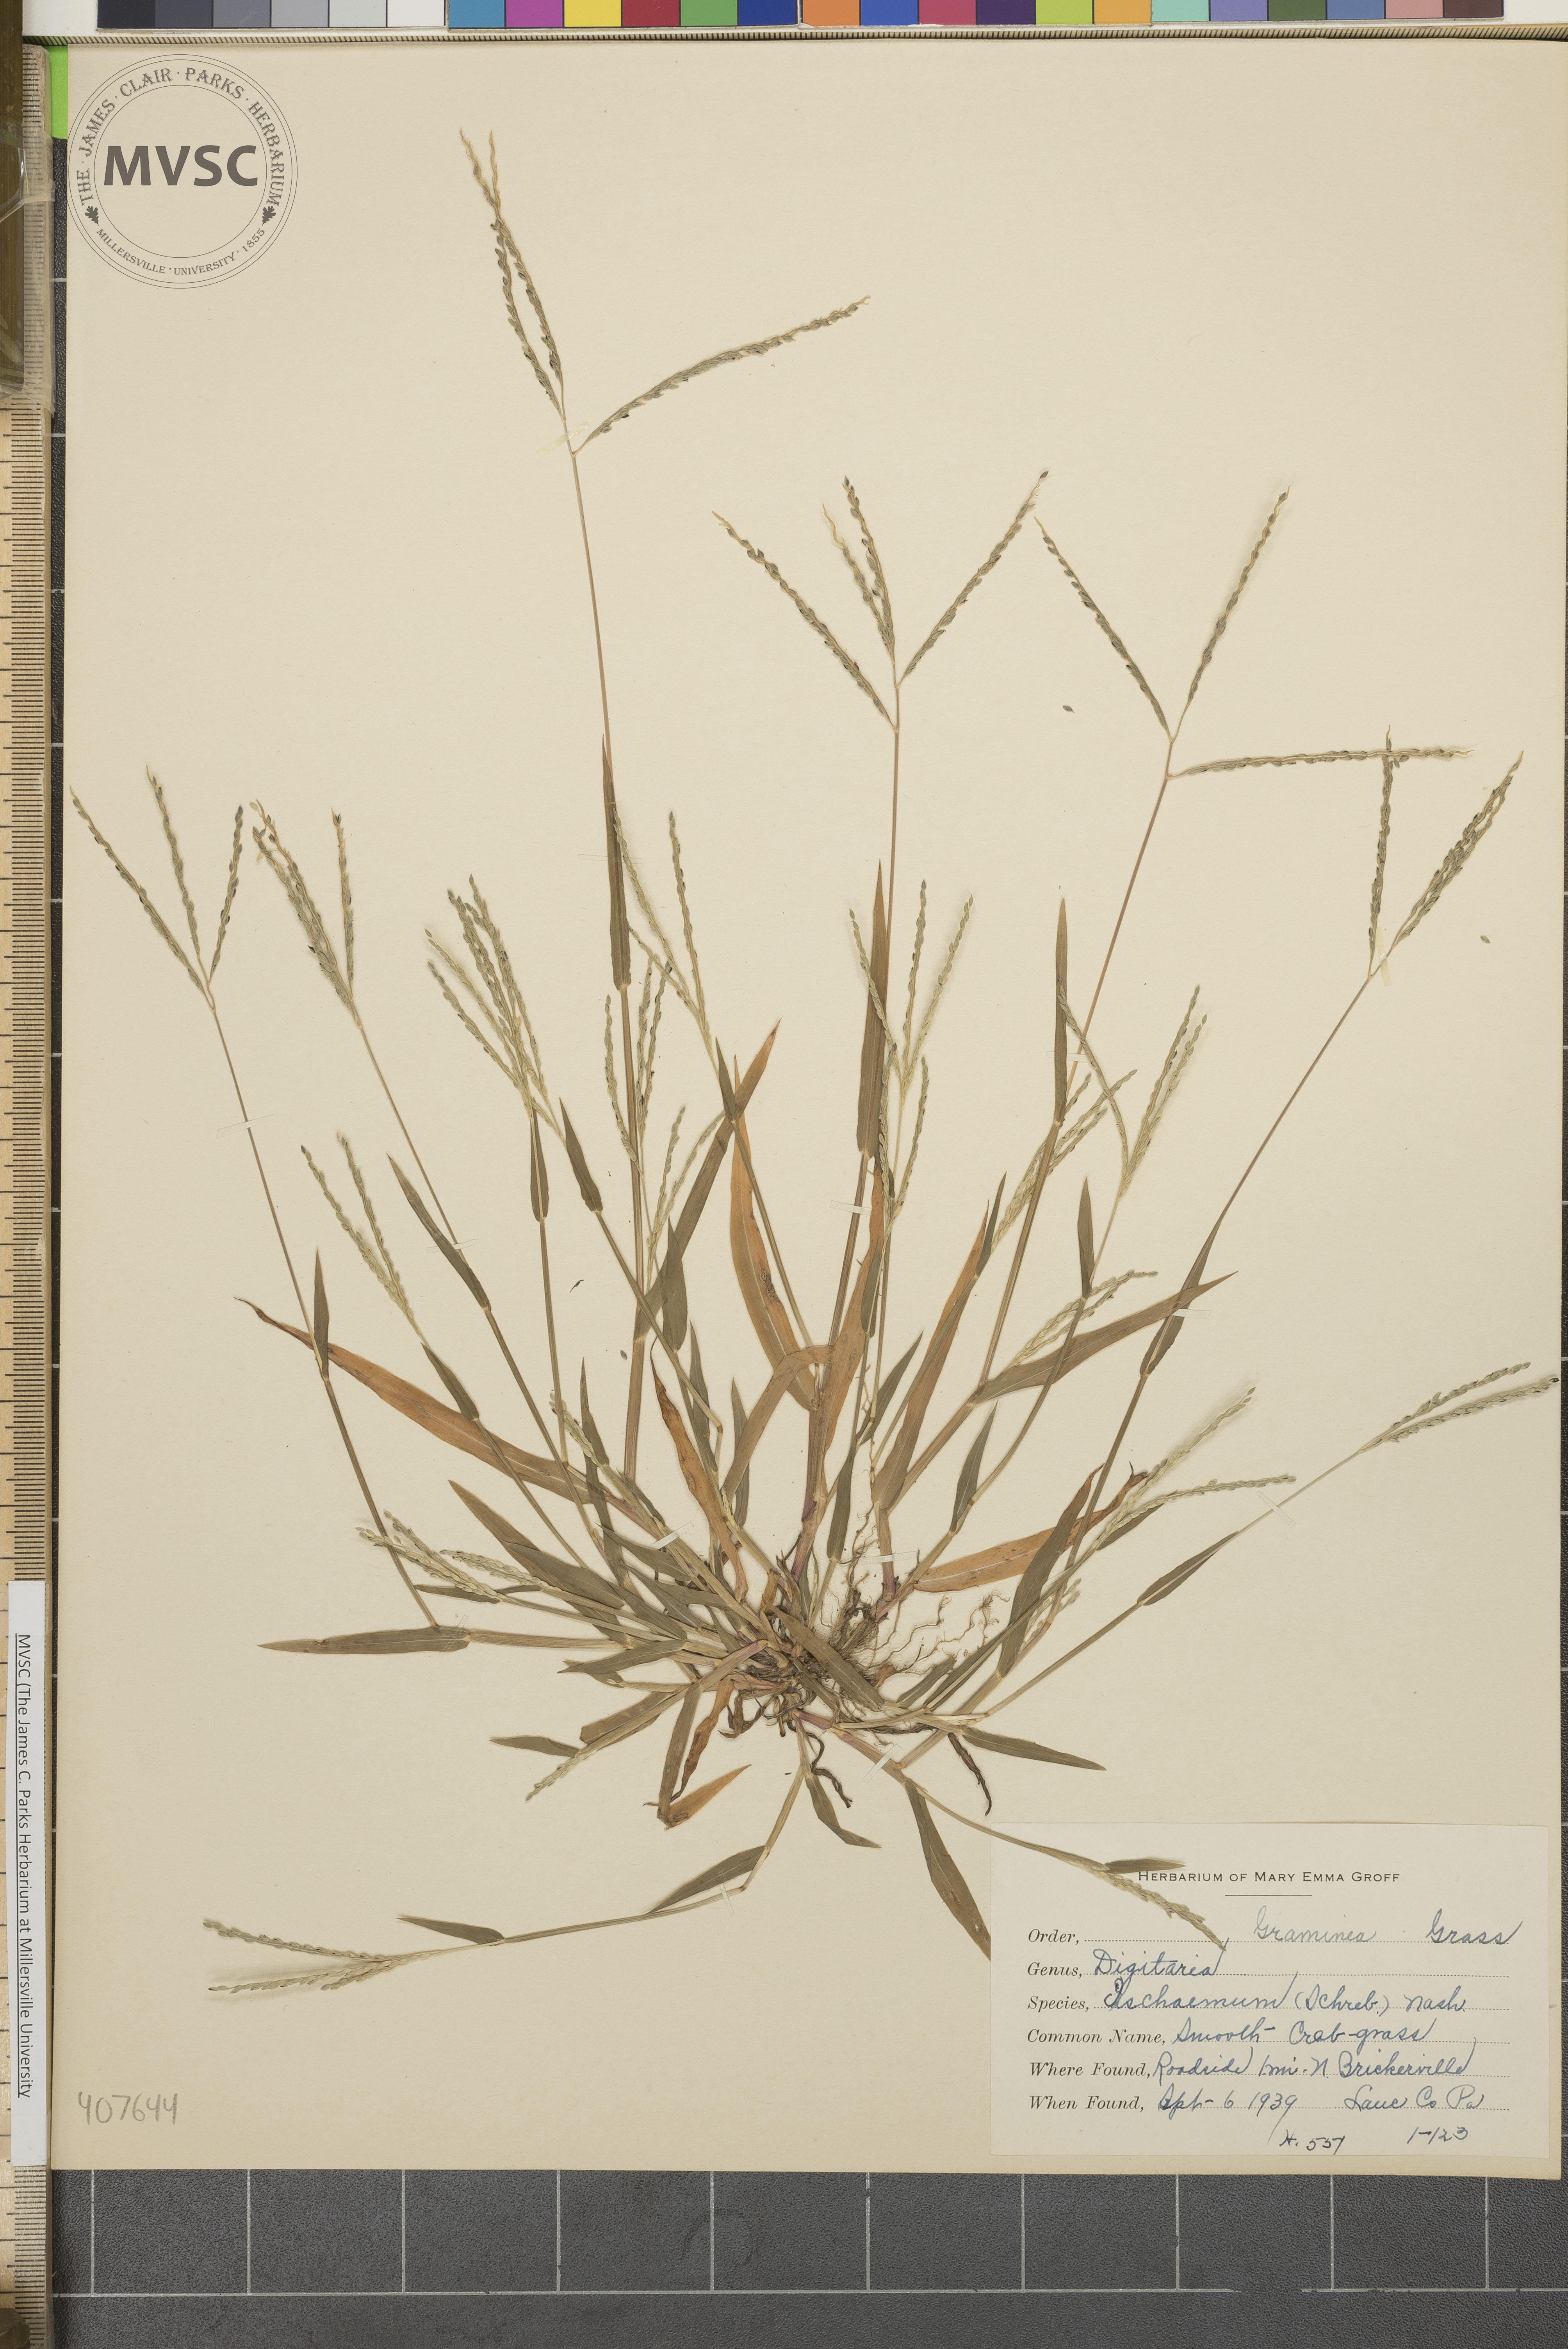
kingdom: Plantae
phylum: Tracheophyta
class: Liliopsida
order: Poales
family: Poaceae
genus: Digitaria
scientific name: Digitaria ischaemum
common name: Smooth crabgrass
